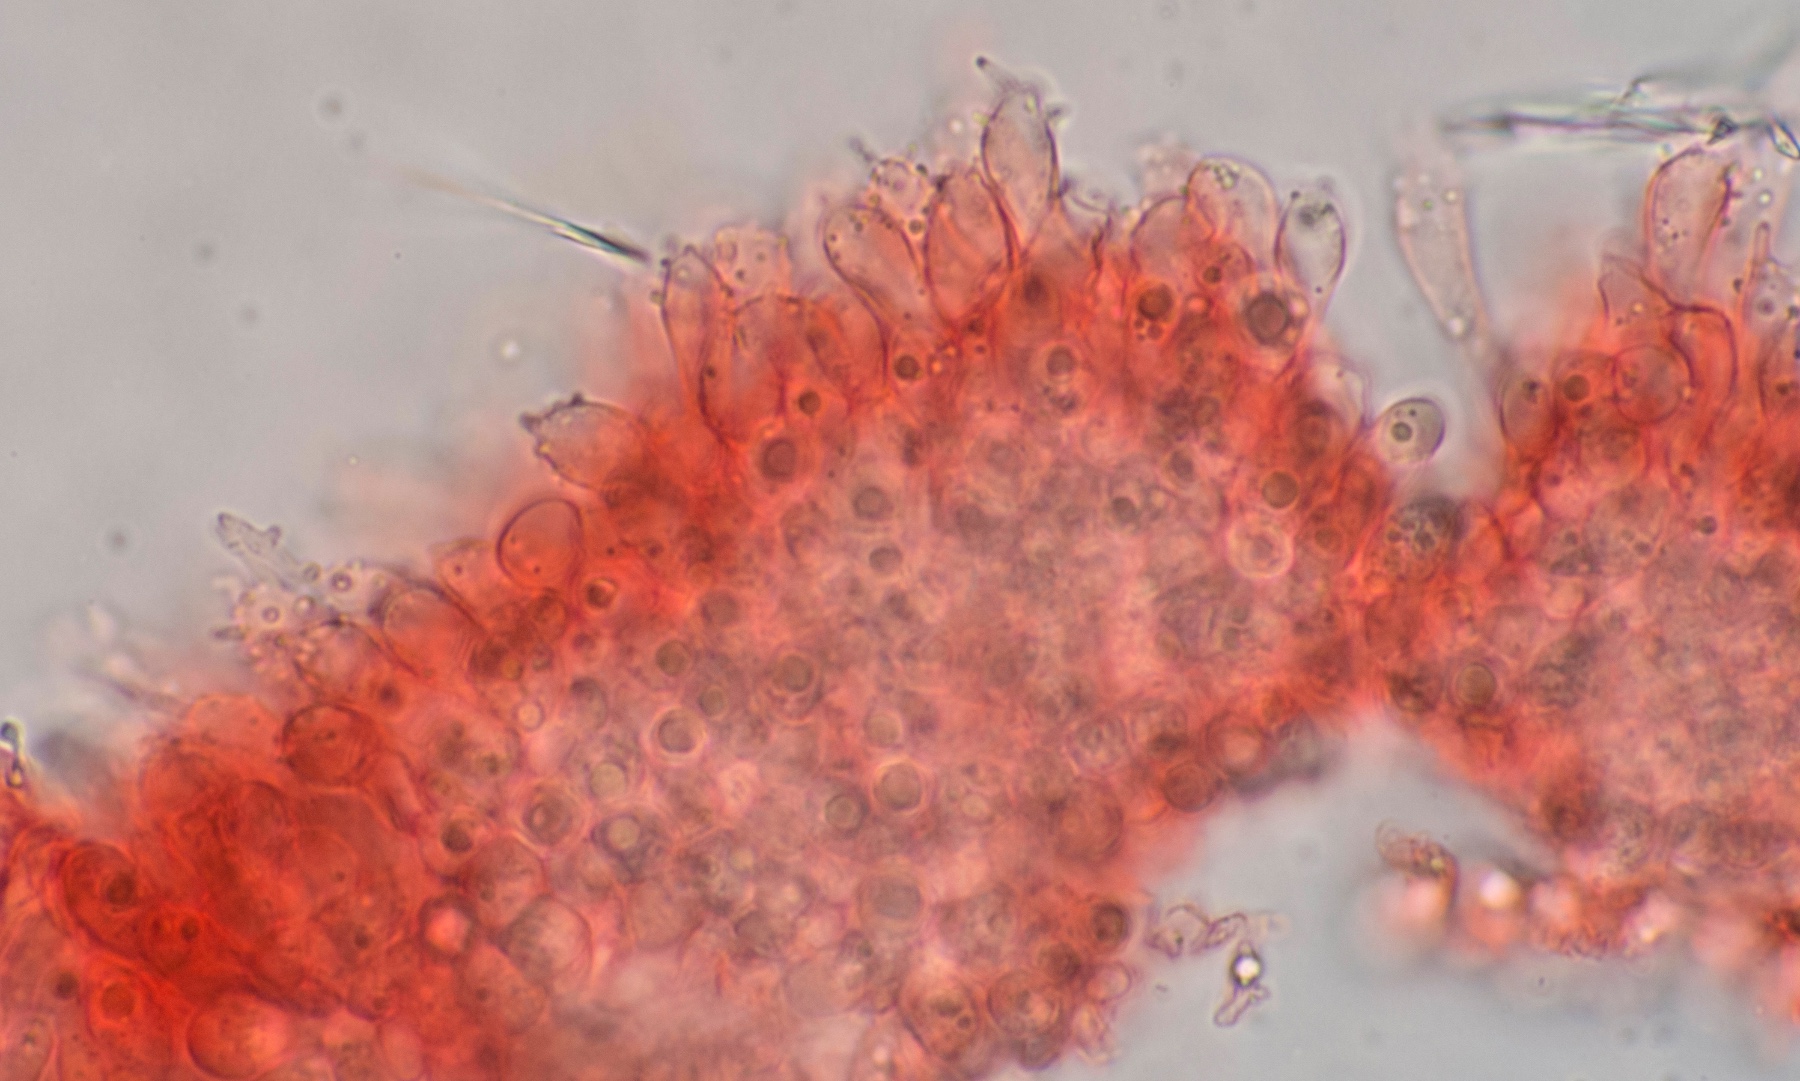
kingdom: Fungi
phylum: Basidiomycota
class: Agaricomycetes
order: Agaricales
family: Mycenaceae
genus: Mycena
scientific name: Mycena tenerrima
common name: pudret huesvamp
